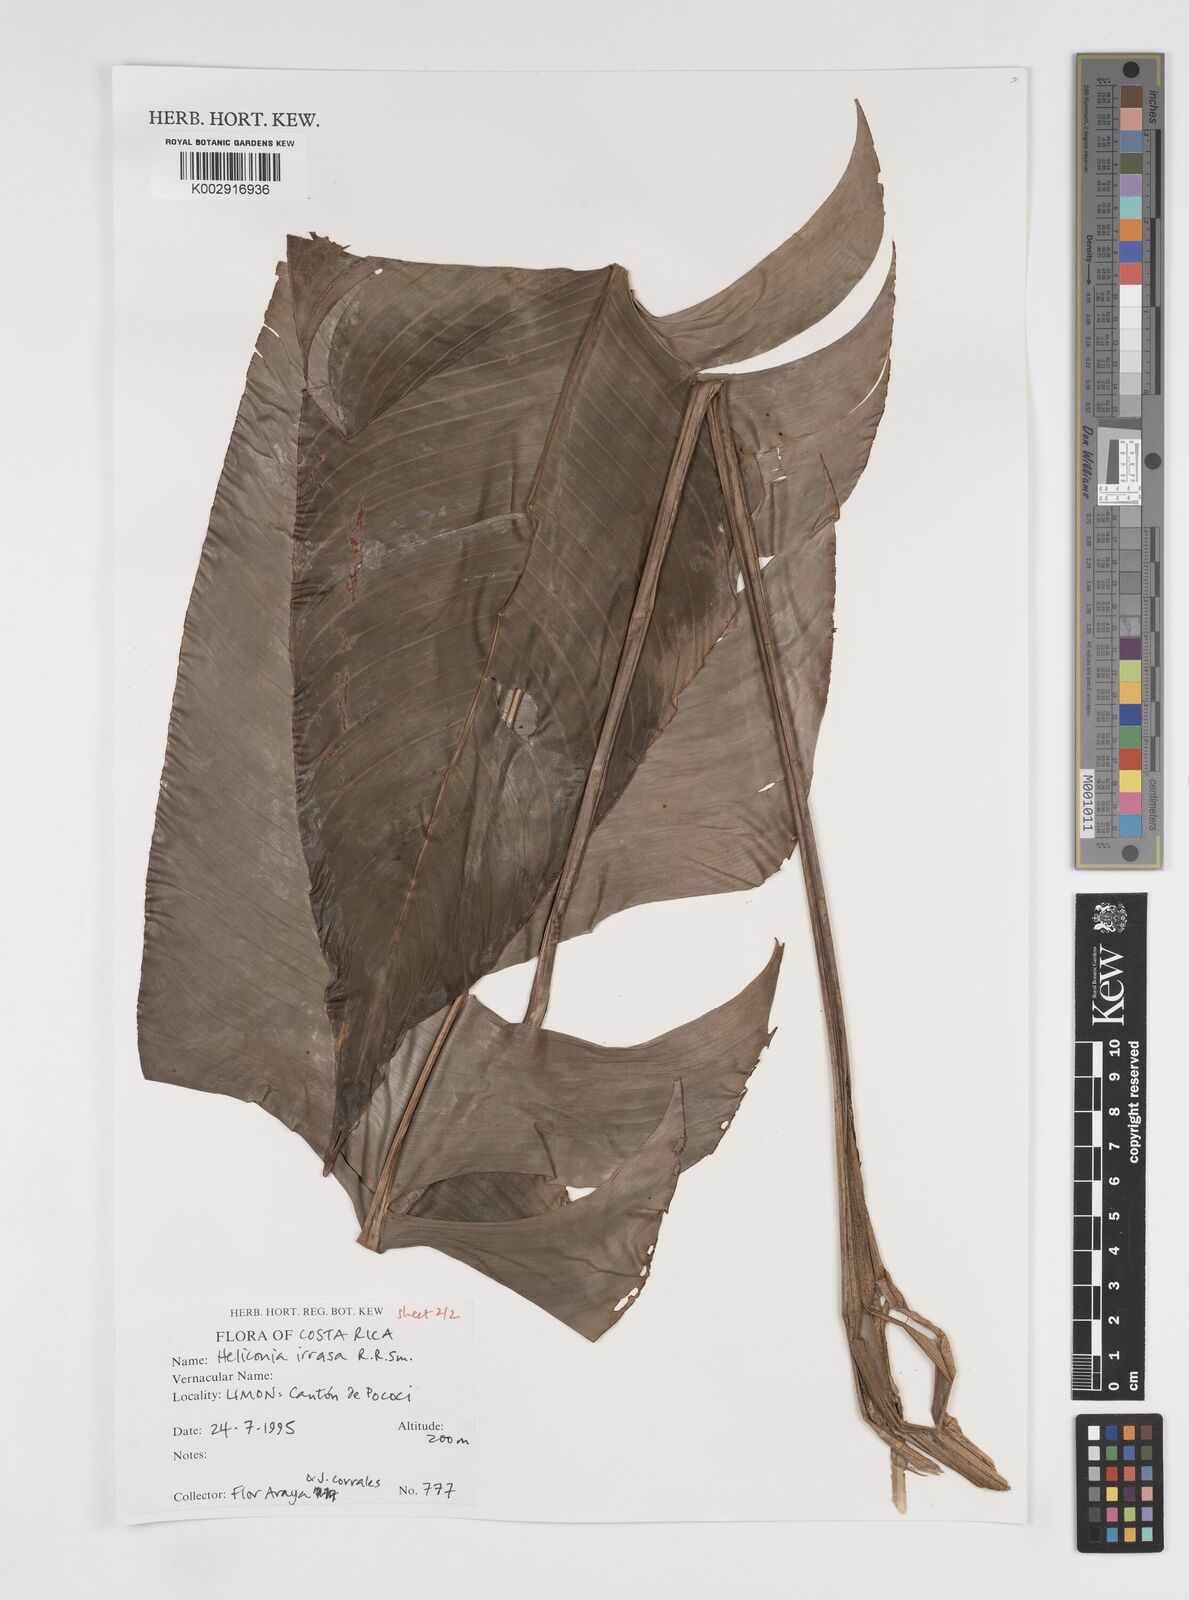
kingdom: Plantae
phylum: Tracheophyta
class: Liliopsida
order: Zingiberales
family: Heliconiaceae
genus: Heliconia
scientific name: Heliconia irrasa
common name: Wild plantain
